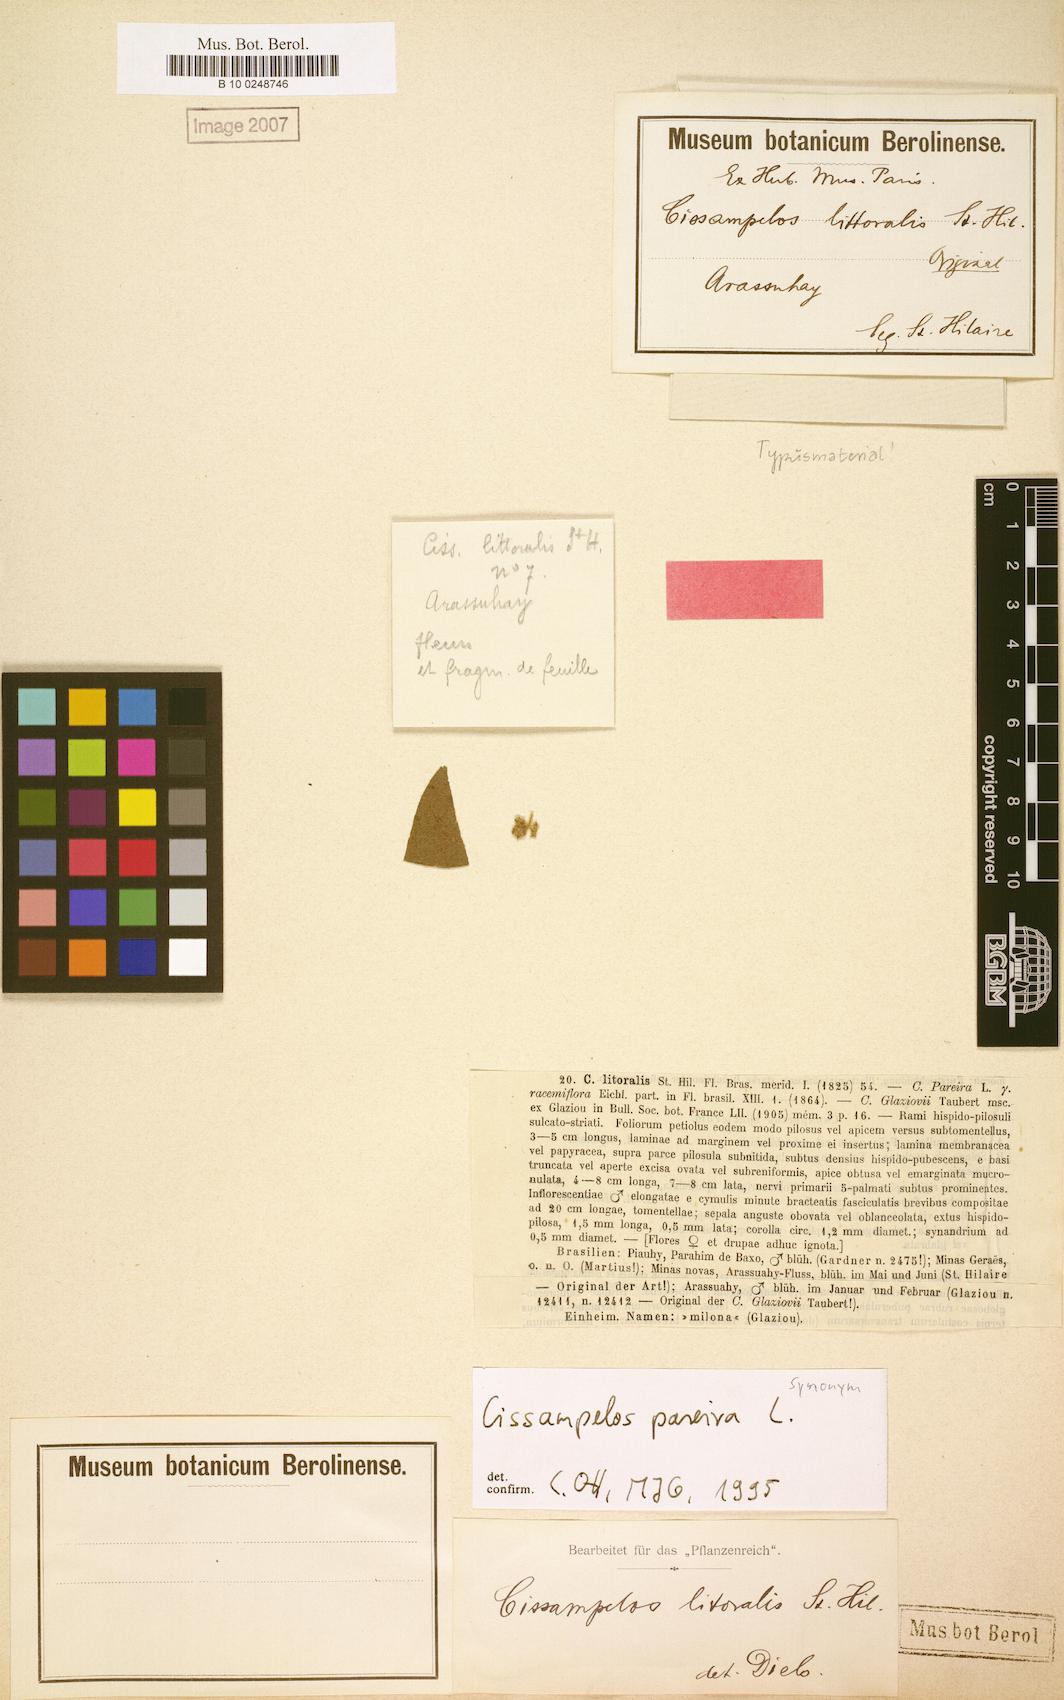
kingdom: Plantae
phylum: Tracheophyta
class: Magnoliopsida
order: Ranunculales
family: Menispermaceae
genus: Cissampelos
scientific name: Cissampelos pareira
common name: Velvetleaf
